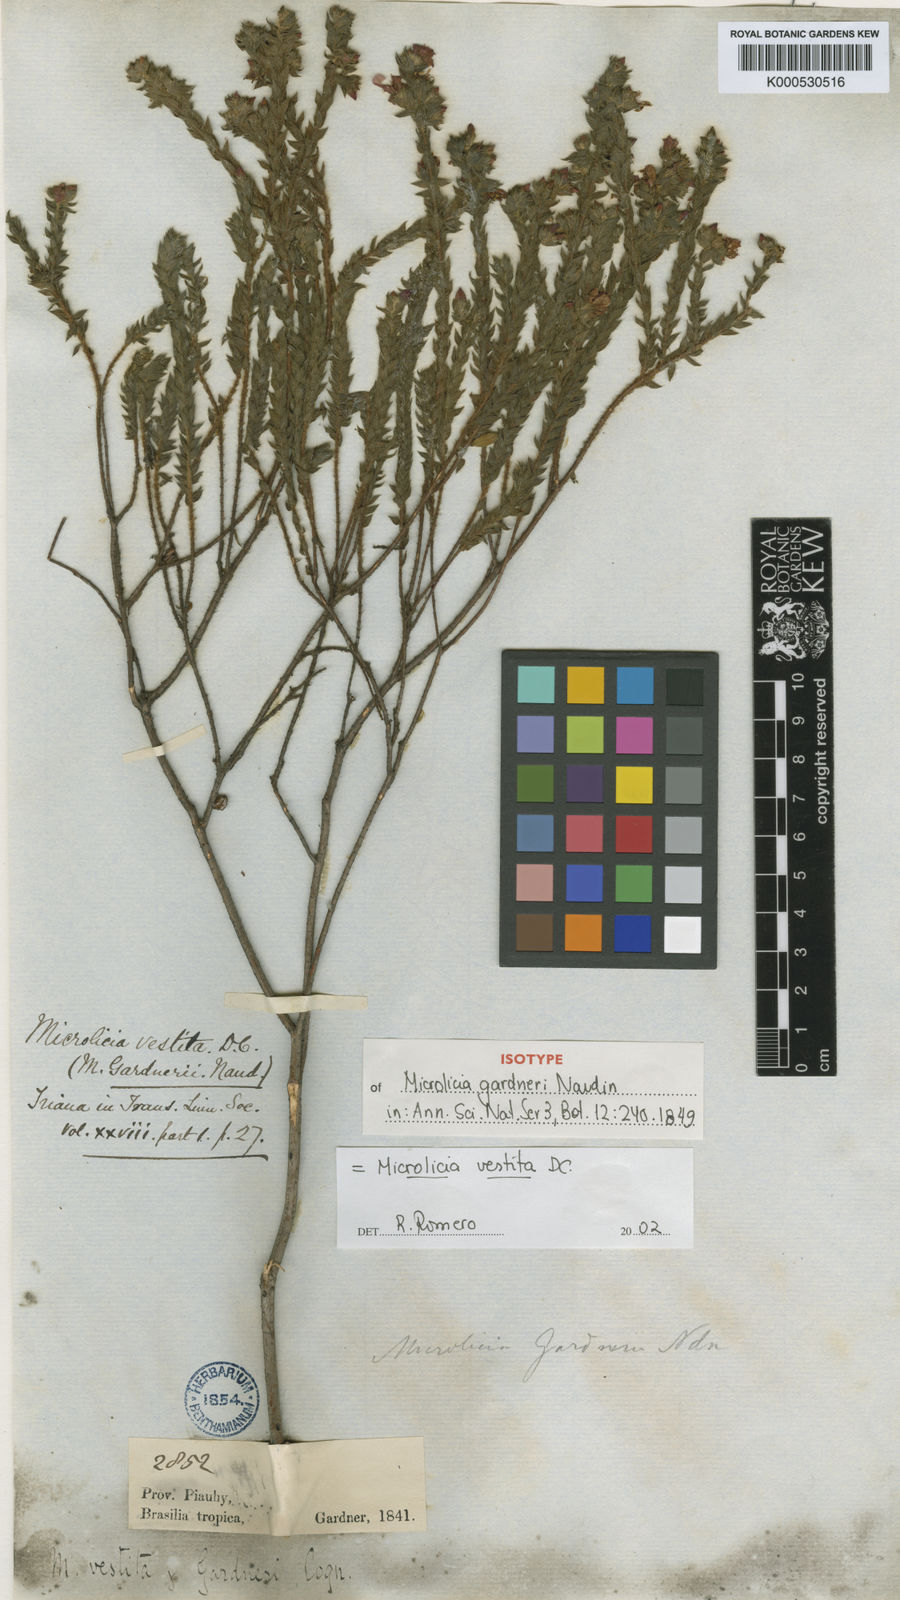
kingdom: Plantae
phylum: Tracheophyta
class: Magnoliopsida
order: Myrtales
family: Melastomataceae
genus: Microlicia
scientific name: Microlicia vestita
